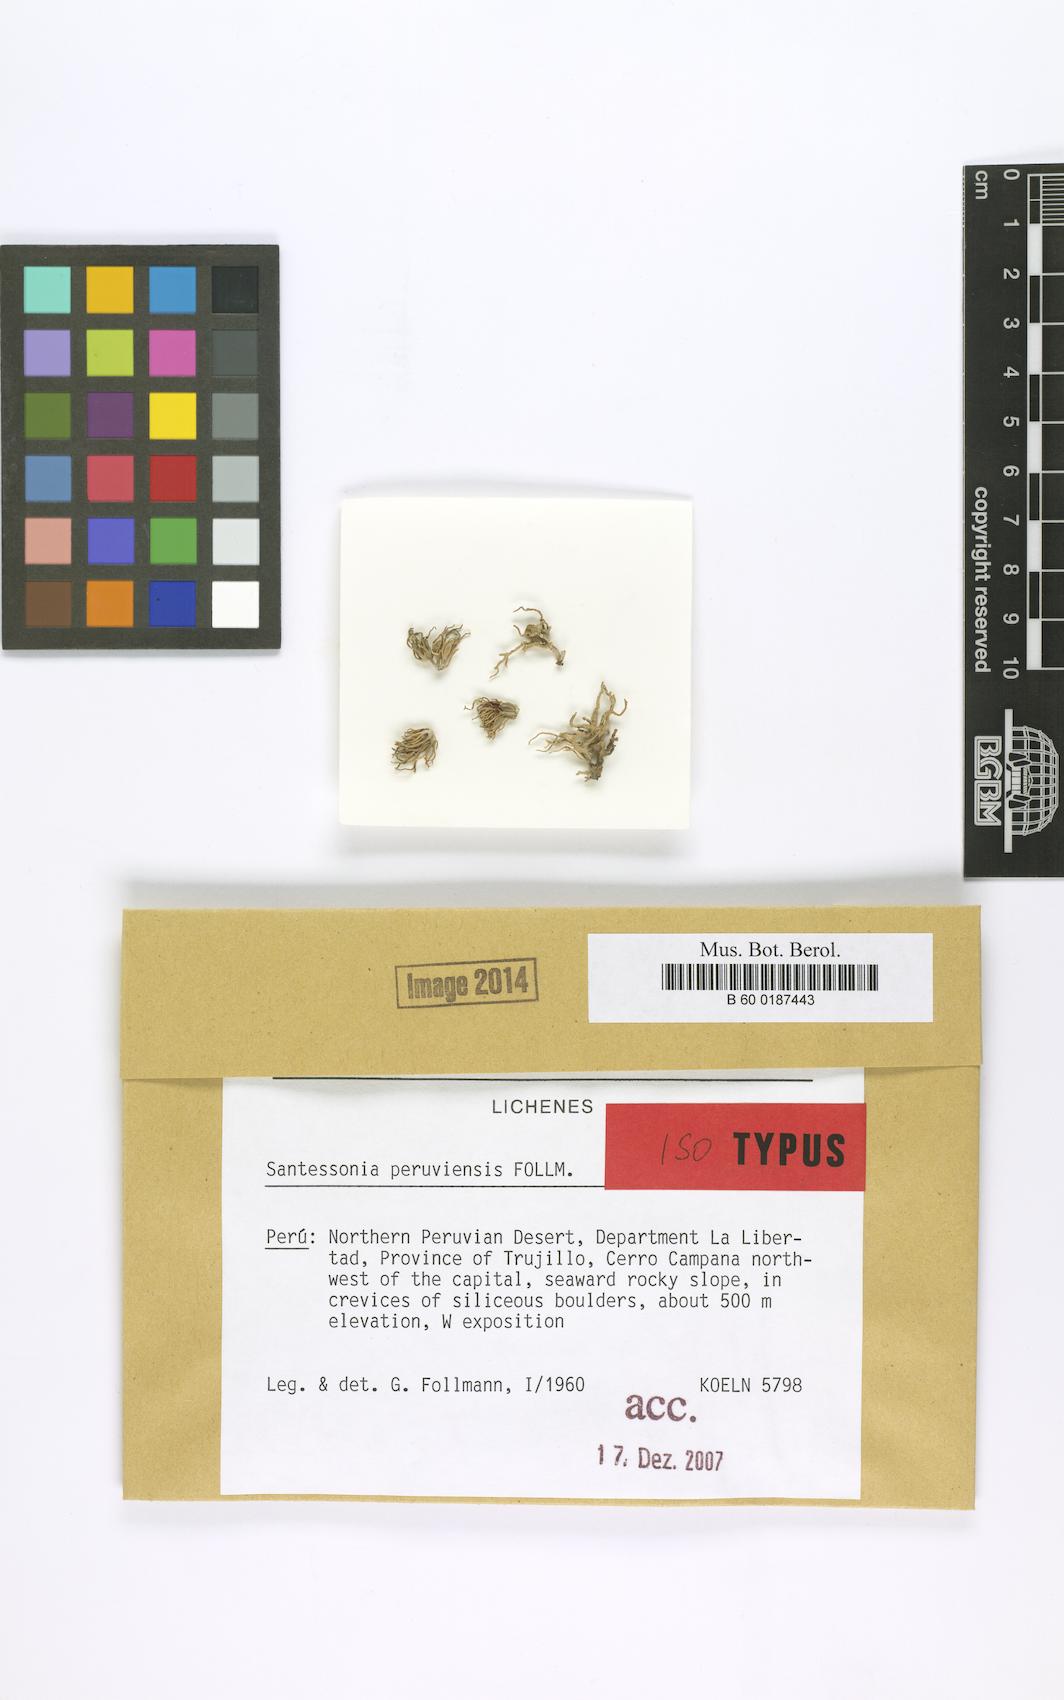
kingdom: Fungi
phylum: Ascomycota
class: Lecanoromycetes
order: Caliciales
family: Caliciaceae
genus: Santessonia
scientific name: Santessonia peruviensis
